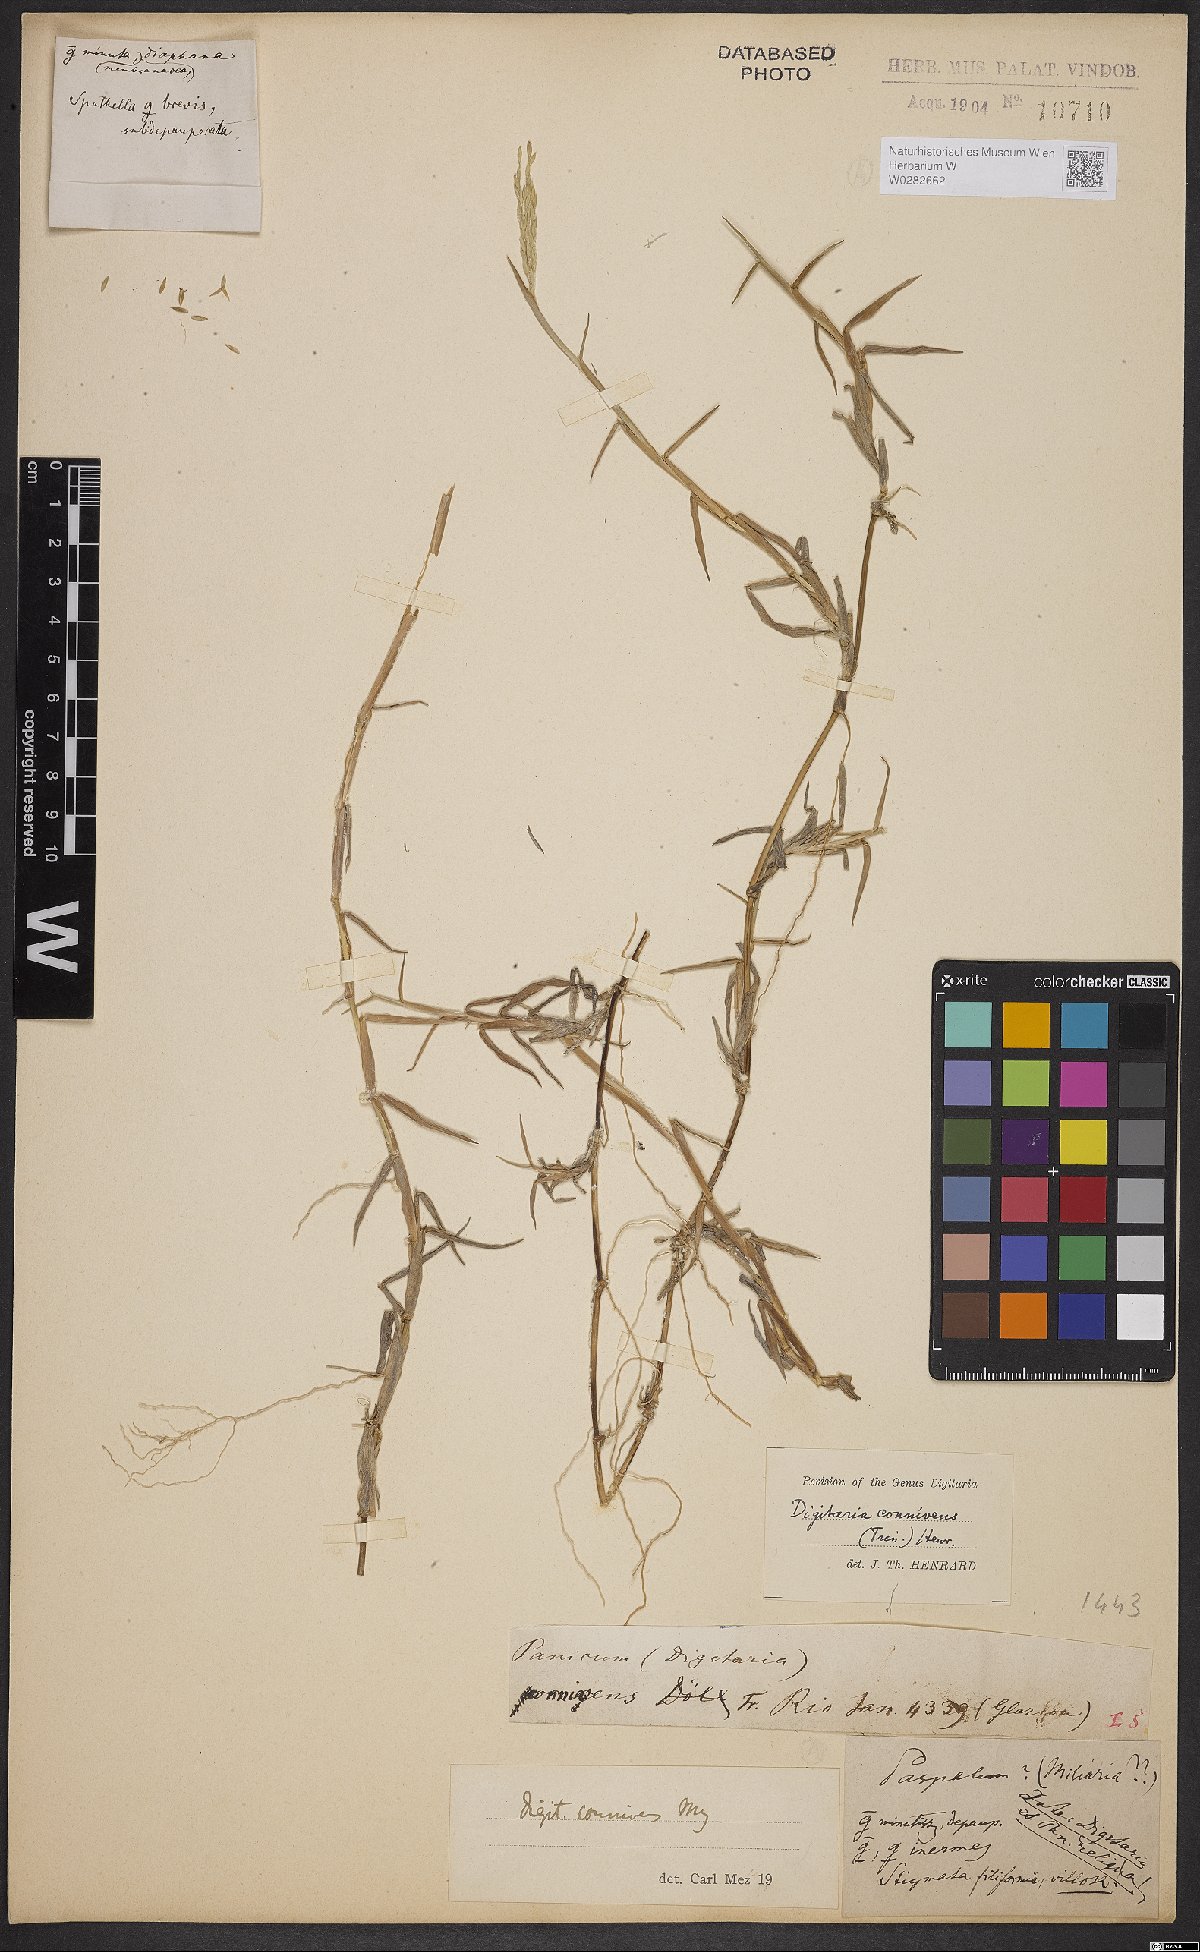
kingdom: Plantae
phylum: Tracheophyta
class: Liliopsida
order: Poales
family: Poaceae
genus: Digitaria
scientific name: Digitaria connivens
